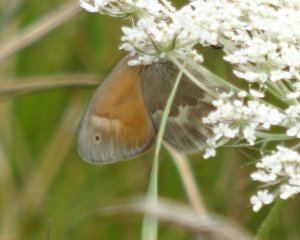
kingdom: Animalia
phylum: Arthropoda
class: Insecta
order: Lepidoptera
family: Nymphalidae
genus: Coenonympha
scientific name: Coenonympha tullia
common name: Large Heath
